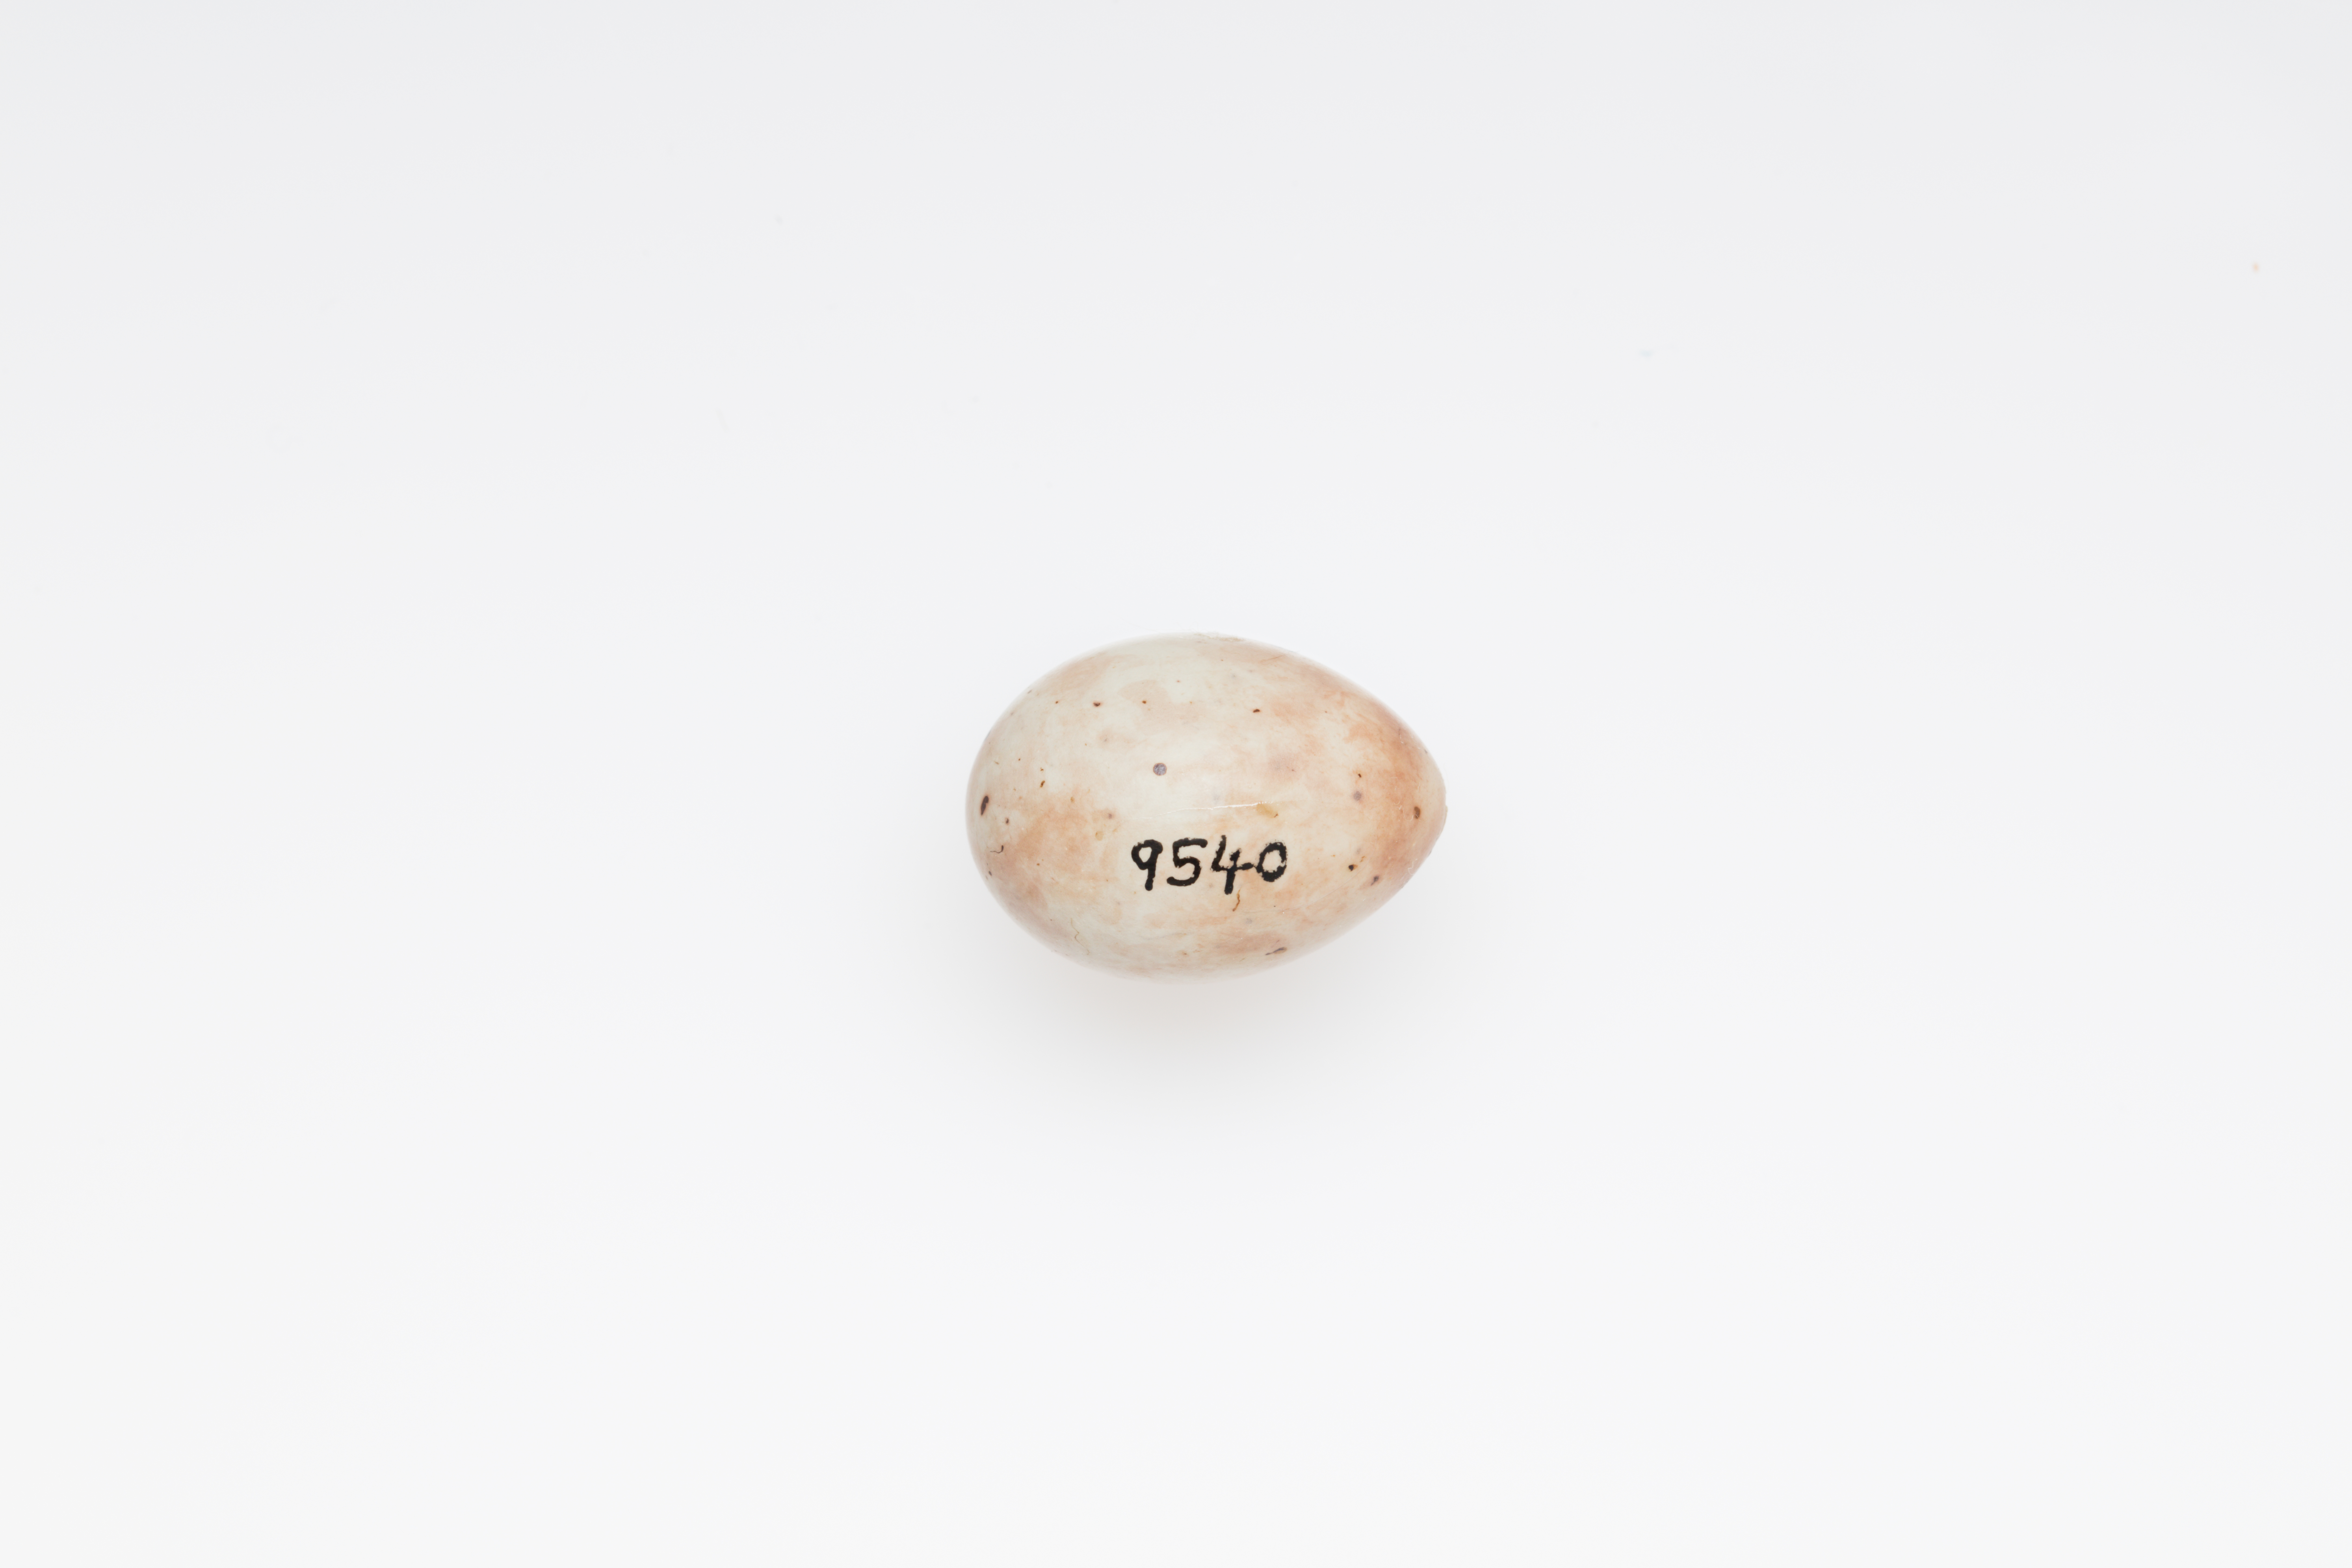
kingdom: Animalia
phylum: Chordata
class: Aves
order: Passeriformes
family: Fringillidae
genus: Fringilla
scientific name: Fringilla coelebs
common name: Common chaffinch
